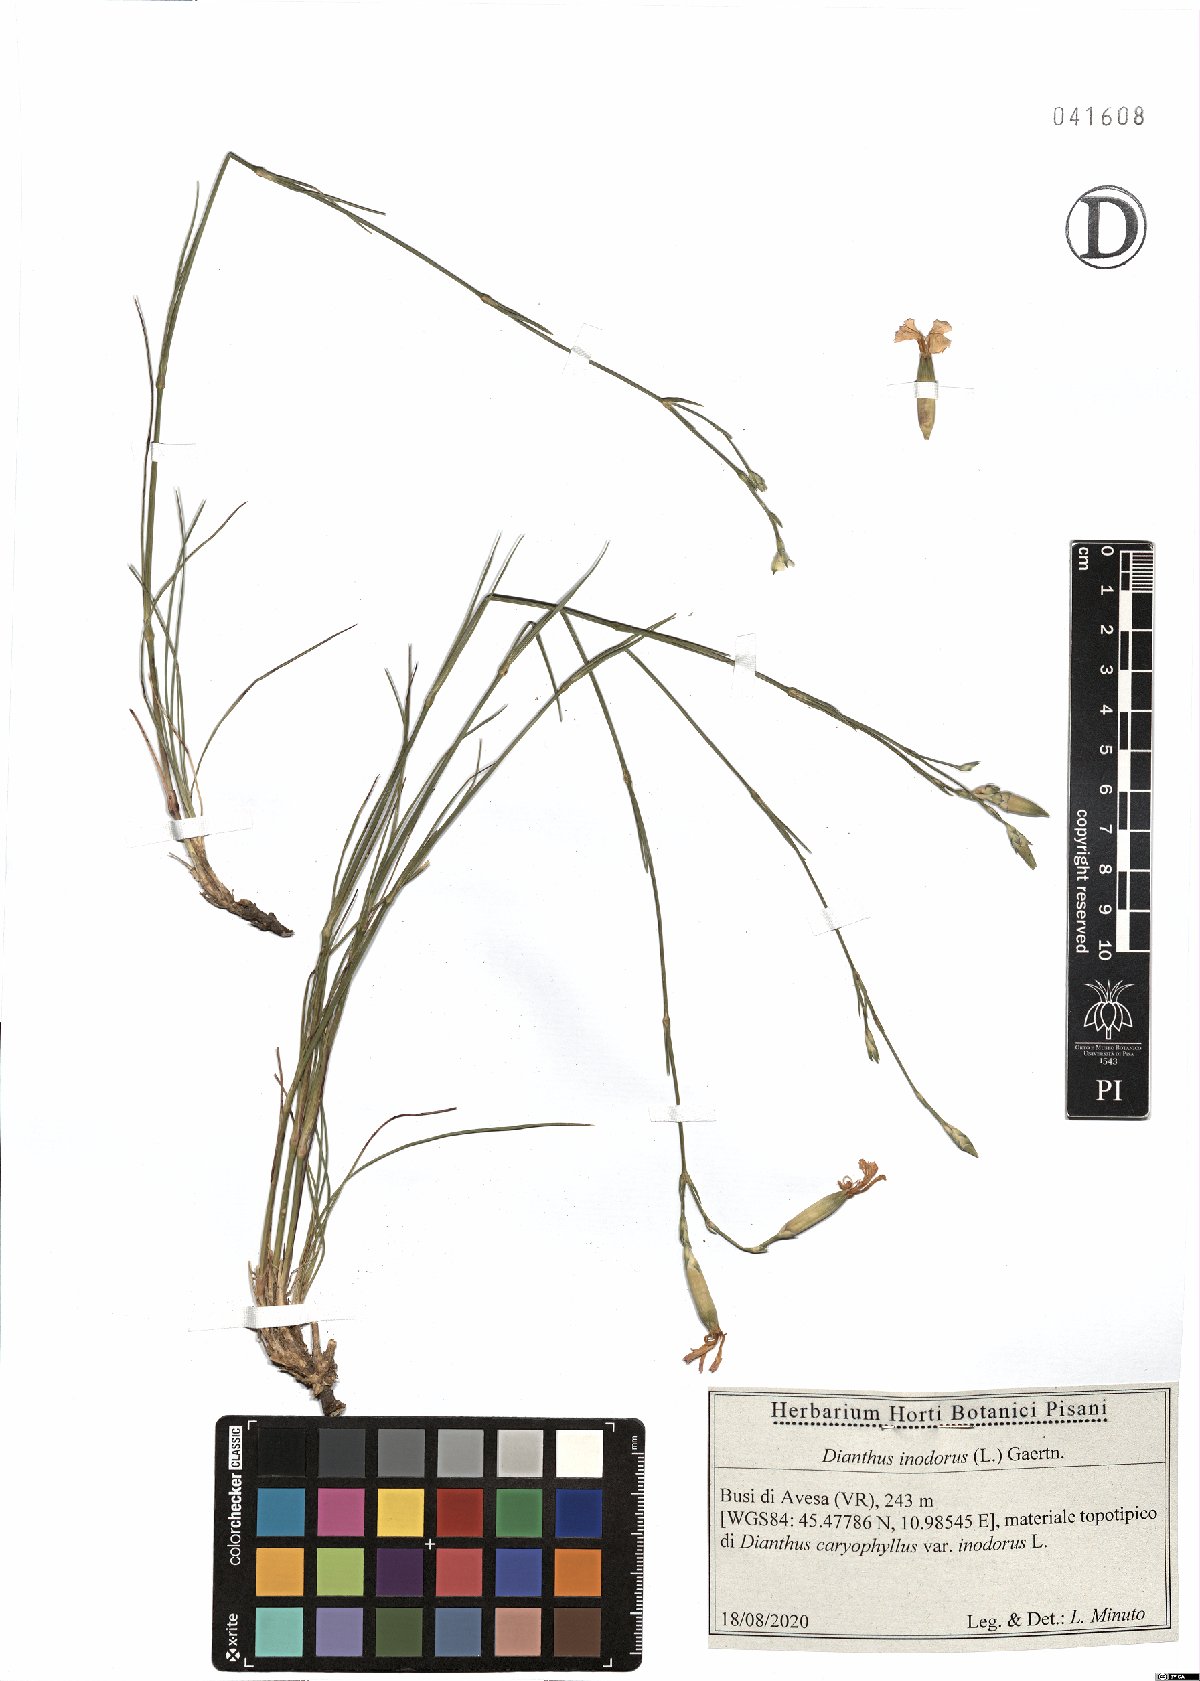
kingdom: Plantae
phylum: Tracheophyta
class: Magnoliopsida
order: Caryophyllales
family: Caryophyllaceae
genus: Dianthus
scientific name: Dianthus sylvestris
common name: Wood pink
